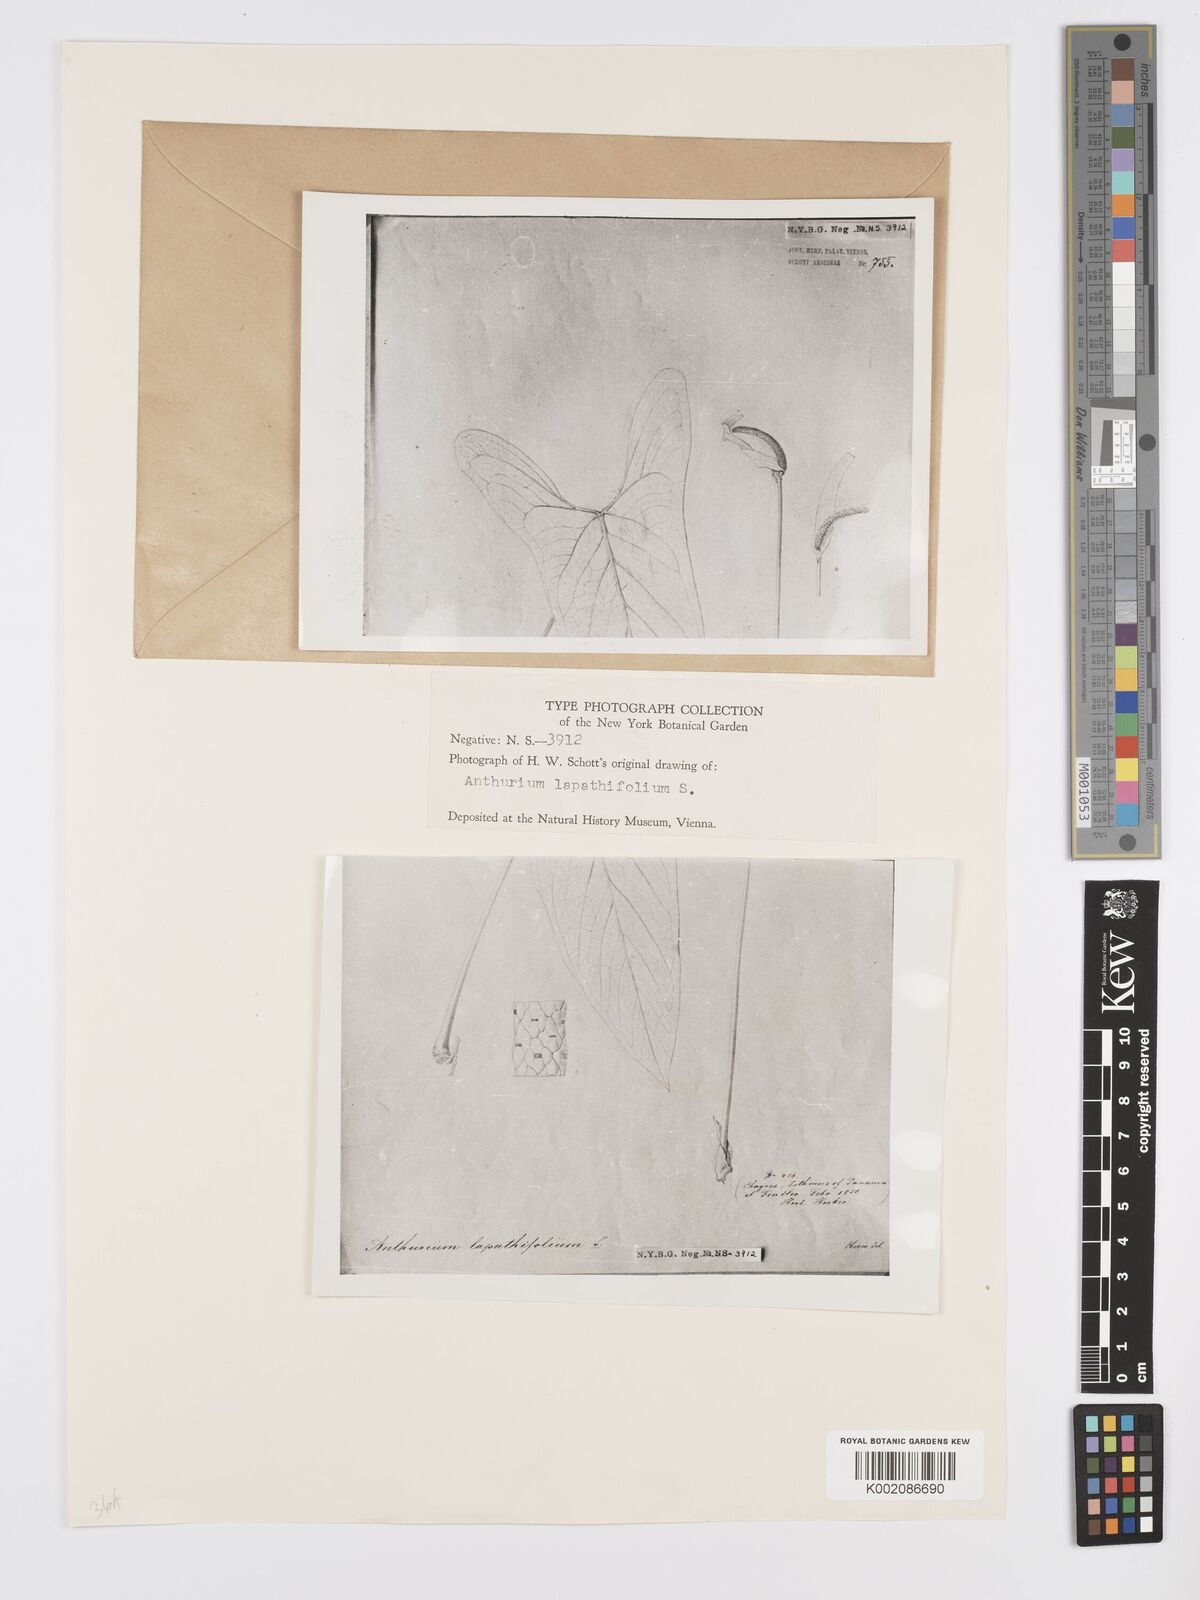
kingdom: Plantae
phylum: Tracheophyta
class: Liliopsida
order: Alismatales
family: Araceae
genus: Anthurium
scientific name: Anthurium ochranthum
